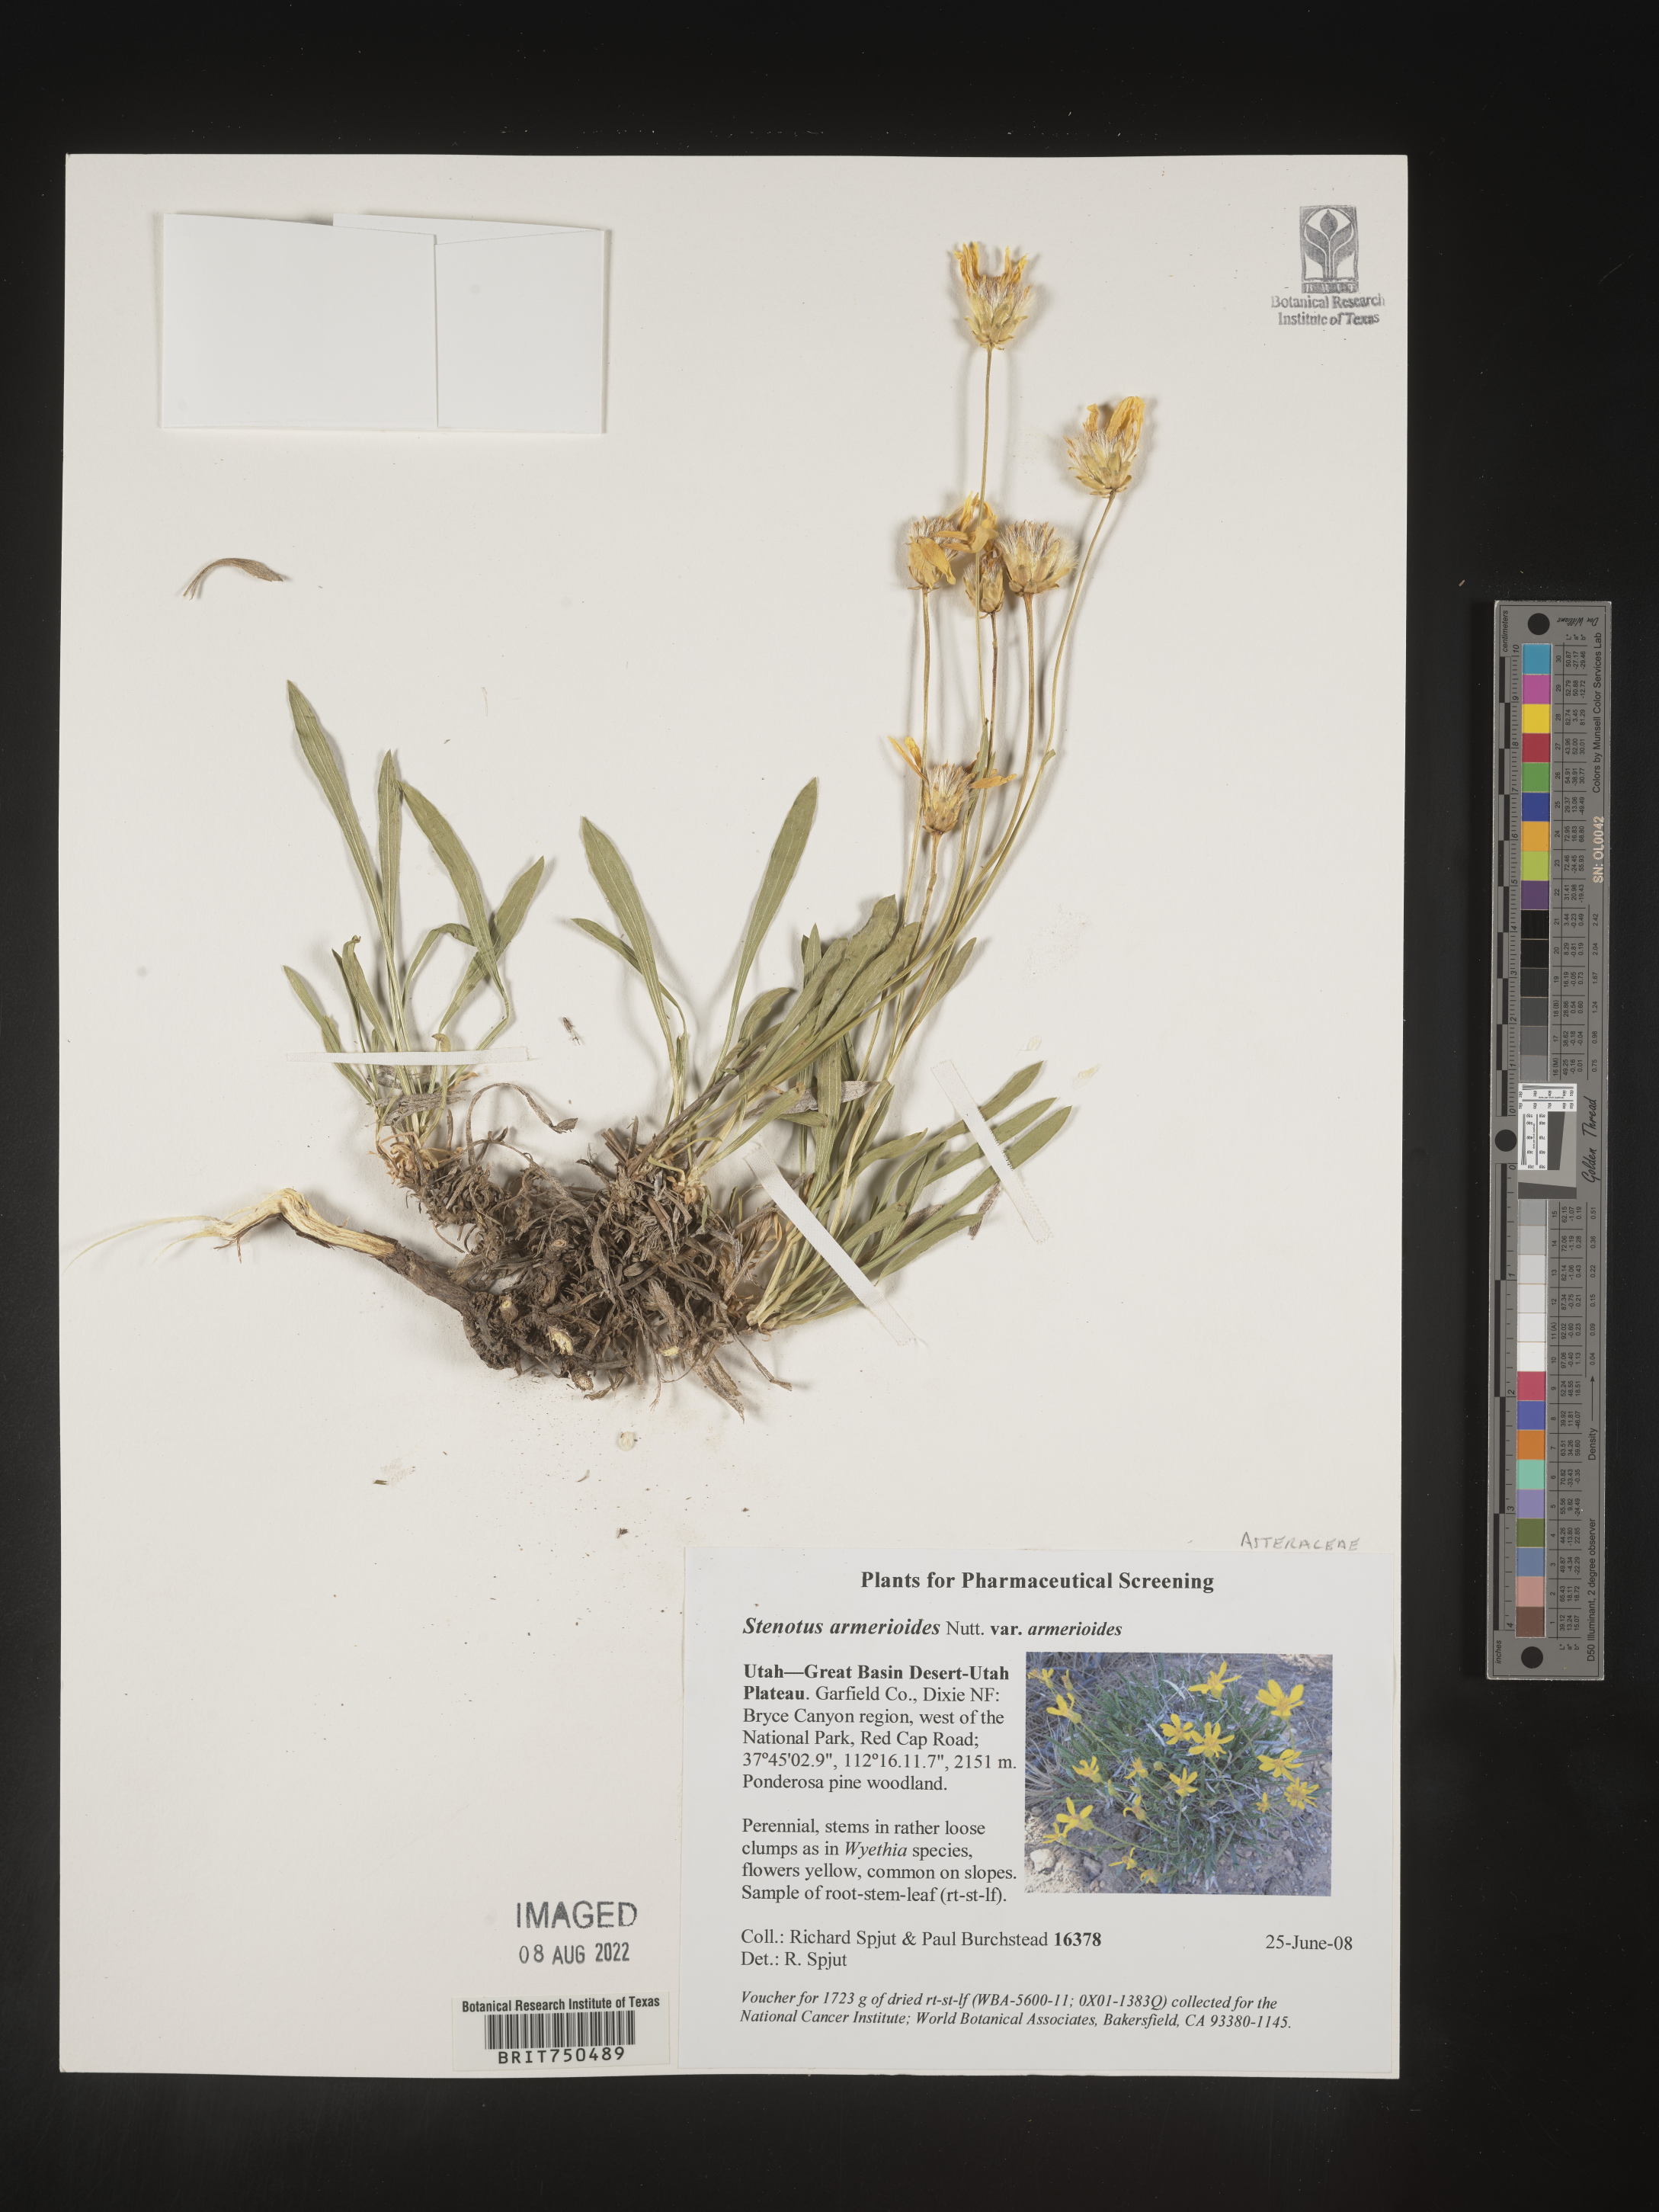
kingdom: Plantae
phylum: Tracheophyta
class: Magnoliopsida
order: Asterales
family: Asteraceae
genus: Stenotus
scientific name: Stenotus armerioides
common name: Thrifty goldenweed
